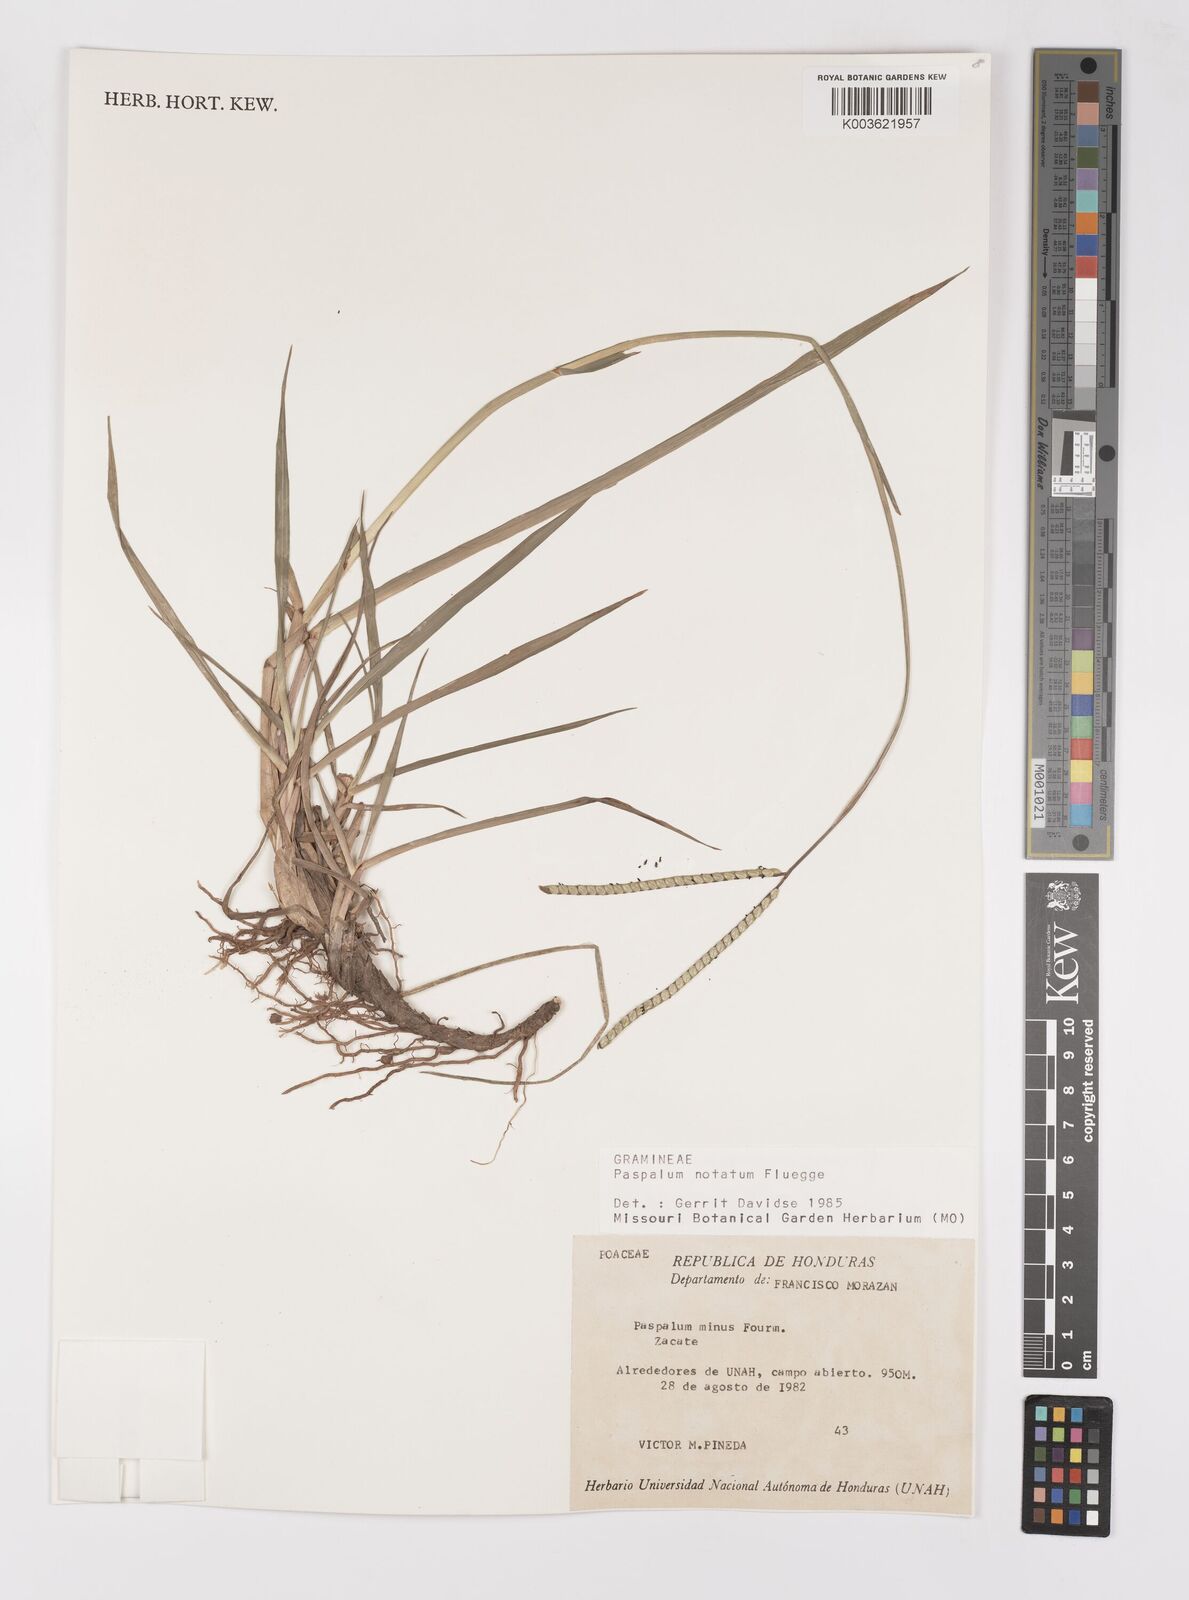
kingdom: Plantae
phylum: Tracheophyta
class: Liliopsida
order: Poales
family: Poaceae
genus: Paspalum
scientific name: Paspalum notatum
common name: Bahiagrass
